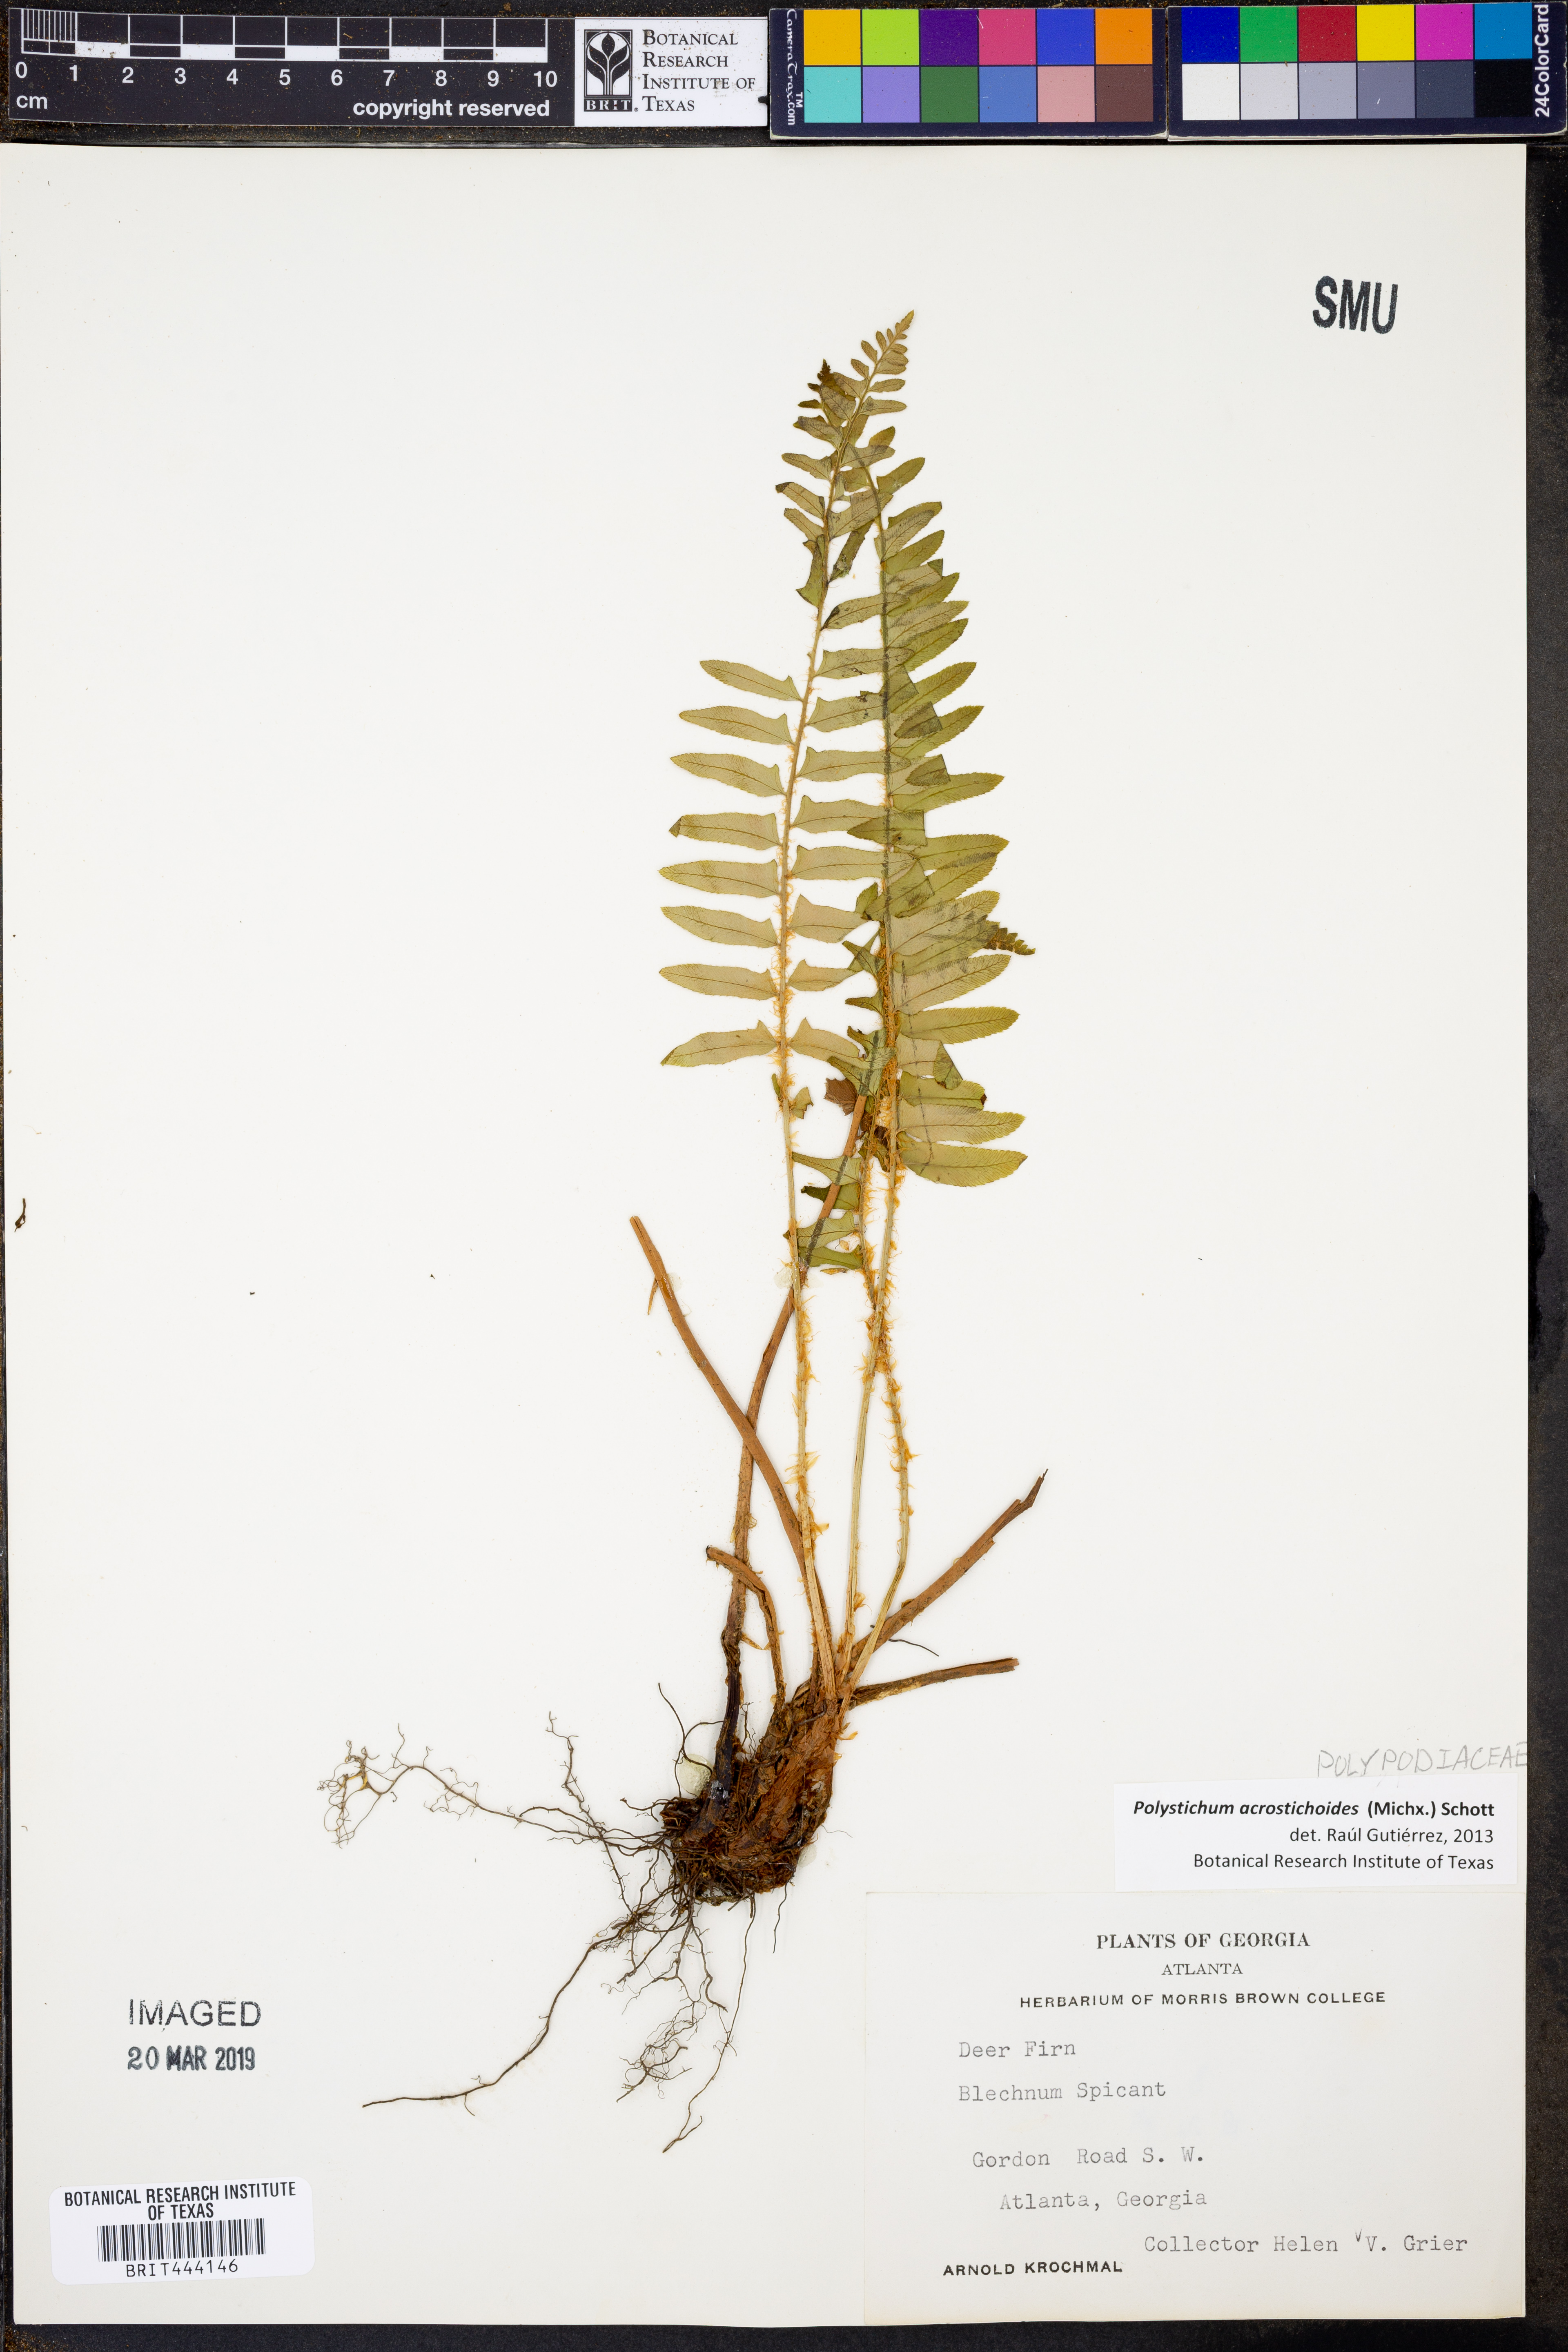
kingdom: Plantae
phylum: Tracheophyta
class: Polypodiopsida
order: Polypodiales
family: Dryopteridaceae
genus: Polystichum
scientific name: Polystichum acrostichoides
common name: Christmas fern
